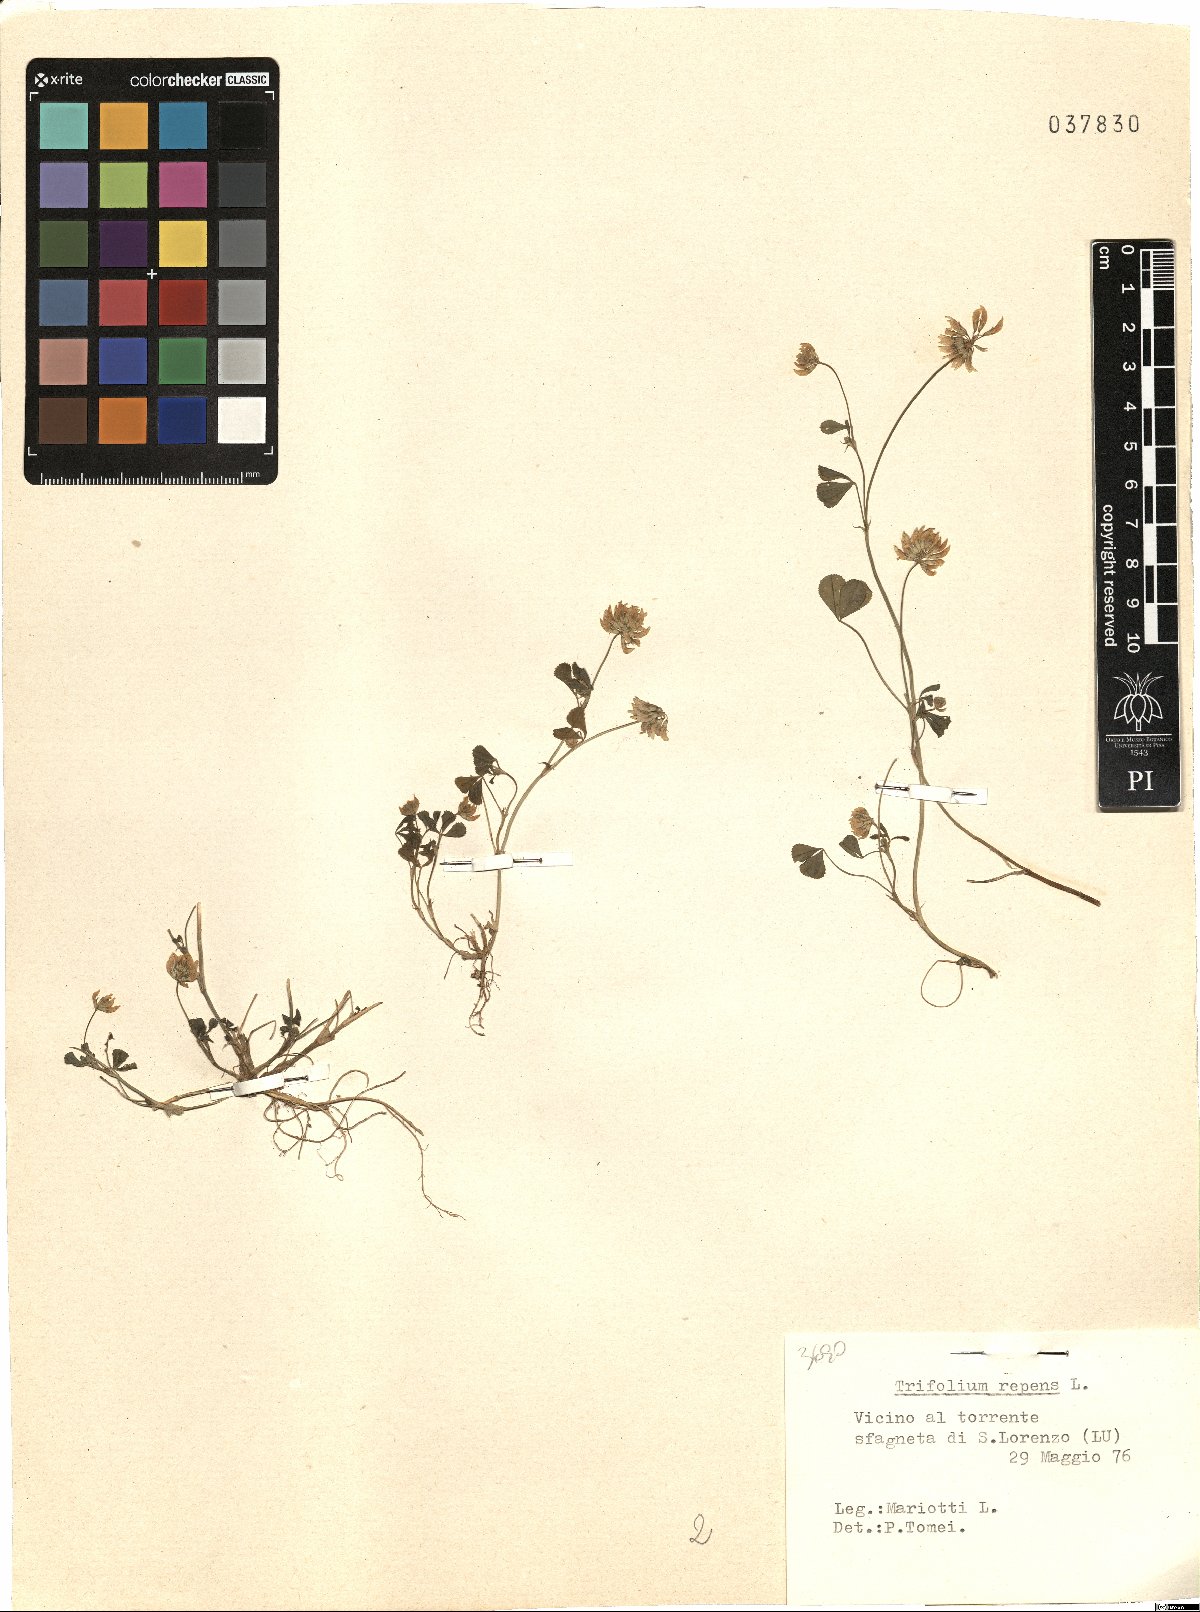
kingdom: Plantae
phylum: Tracheophyta
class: Magnoliopsida
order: Fabales
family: Fabaceae
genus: Trifolium
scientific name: Trifolium repens
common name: White clover
